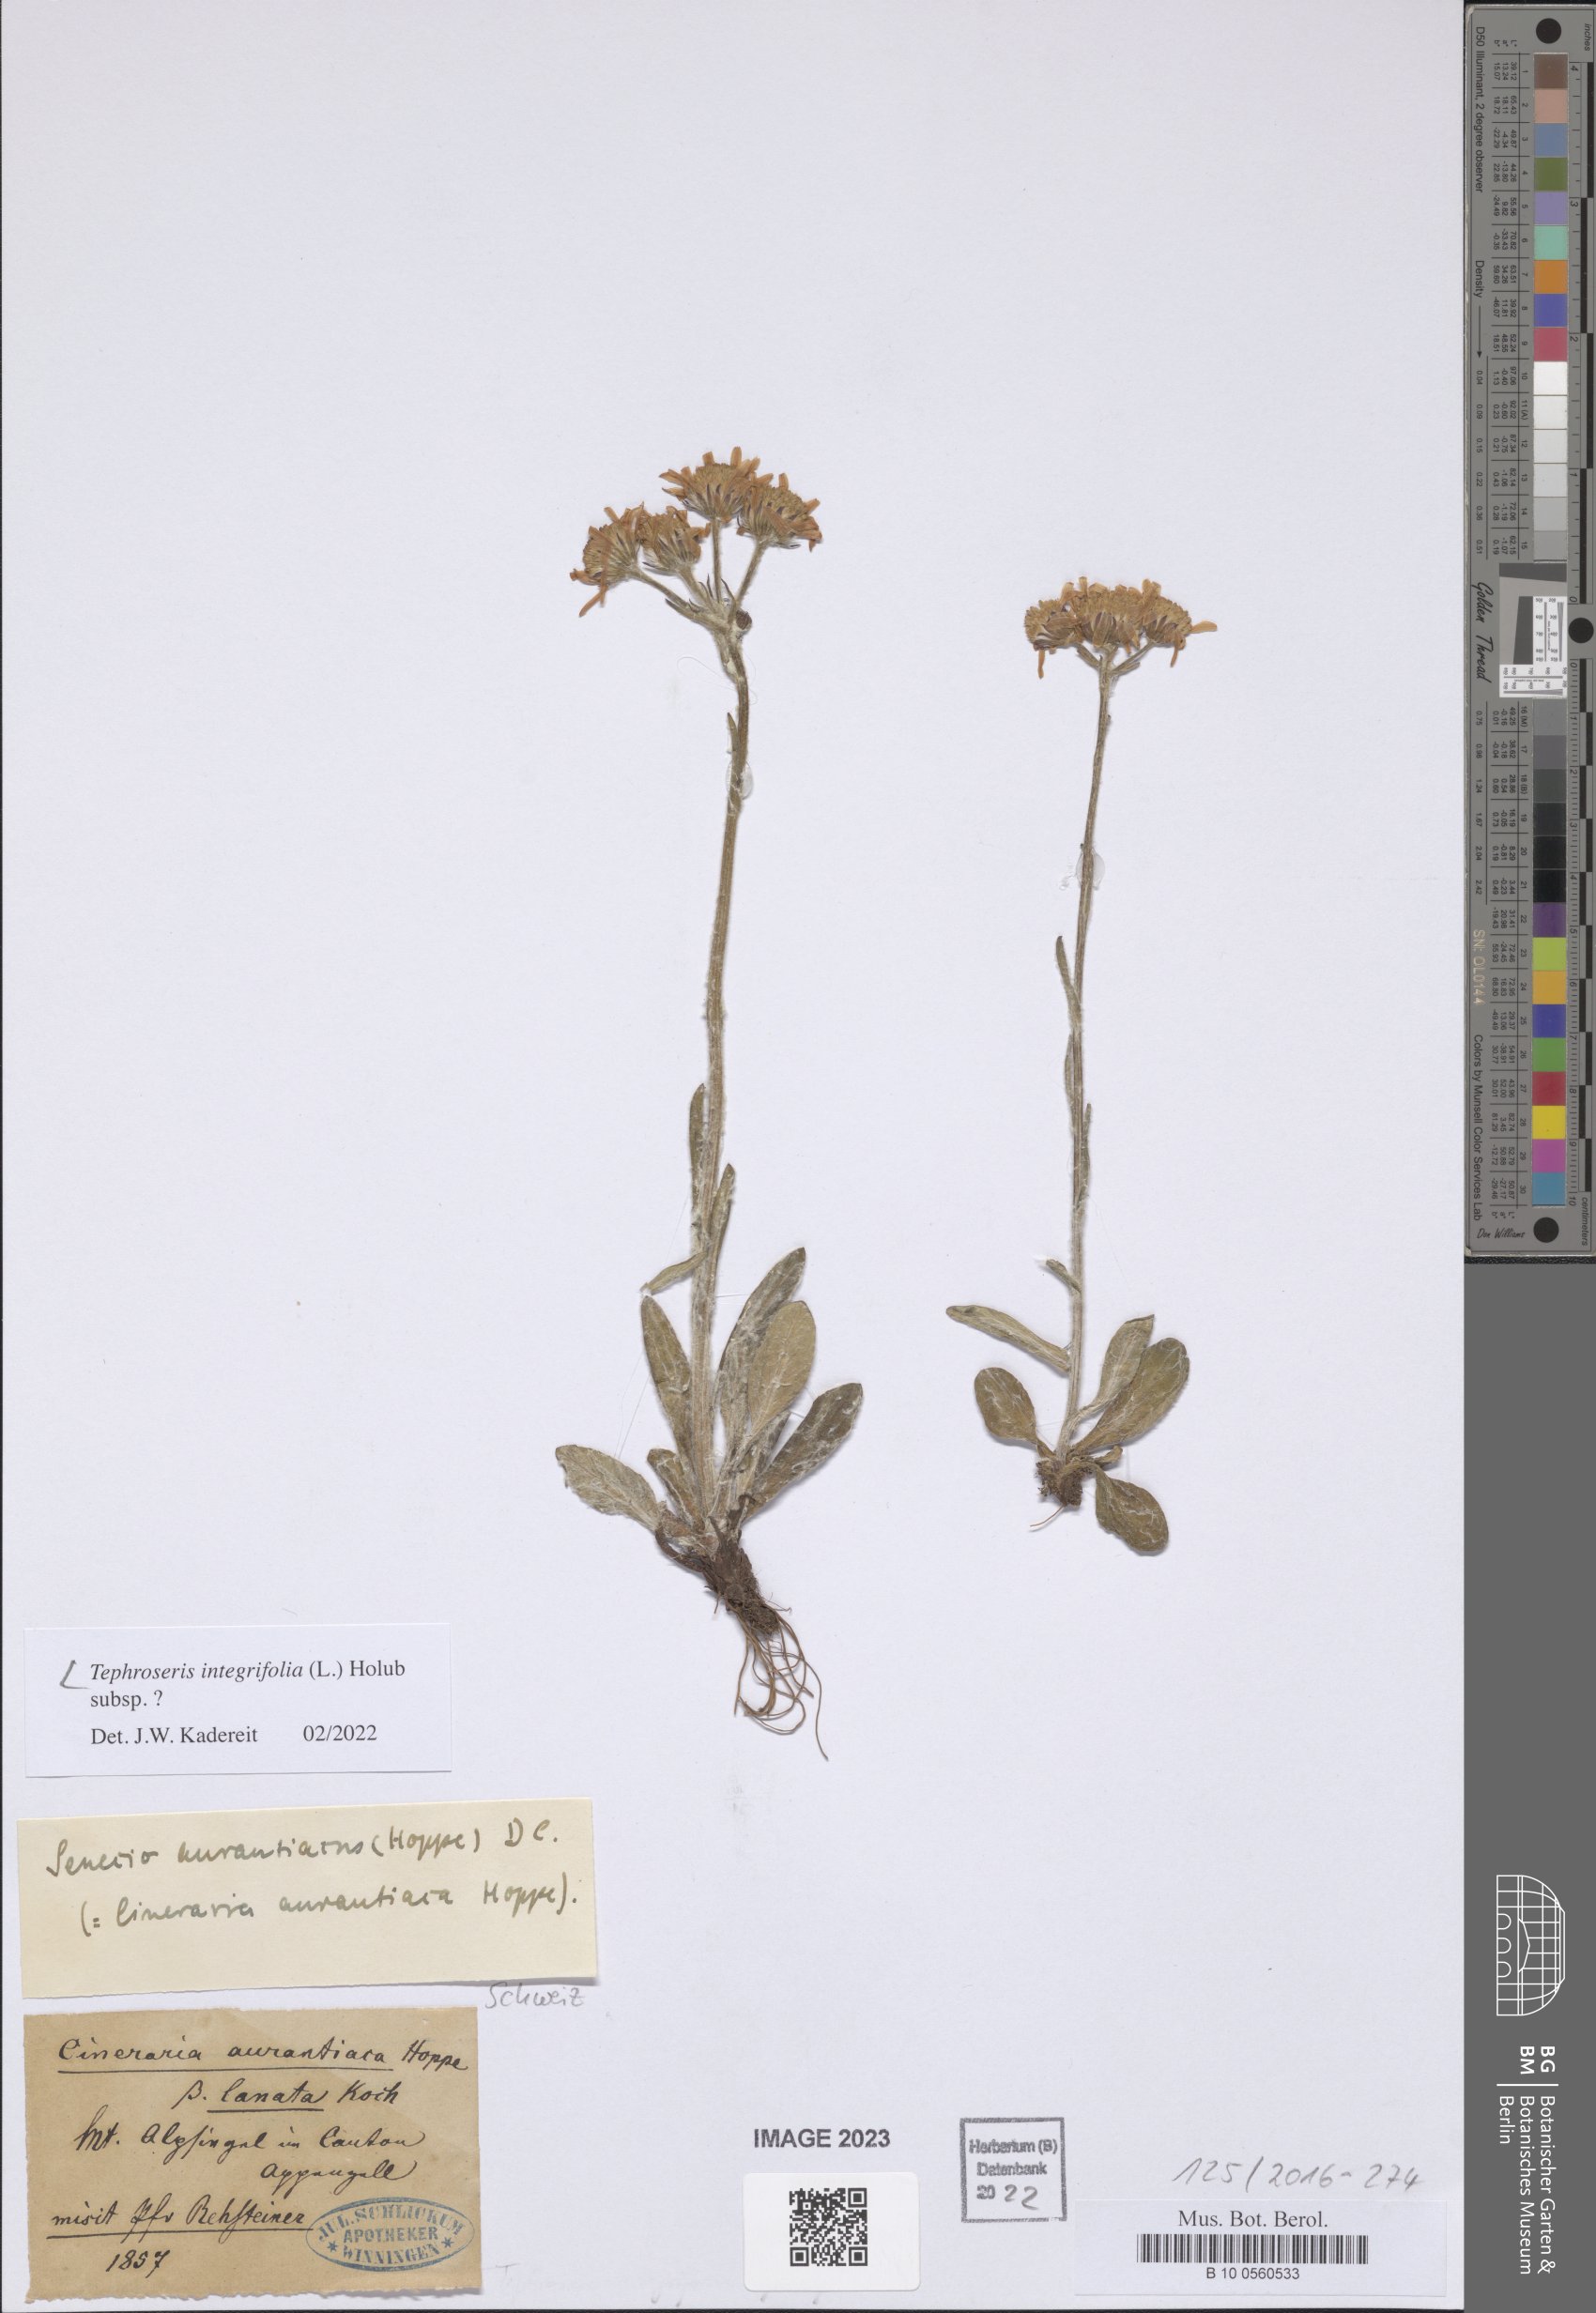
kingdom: Plantae
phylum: Tracheophyta
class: Magnoliopsida
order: Asterales
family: Asteraceae
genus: Tephroseris
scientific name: Tephroseris integrifolia
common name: Field fleawort
